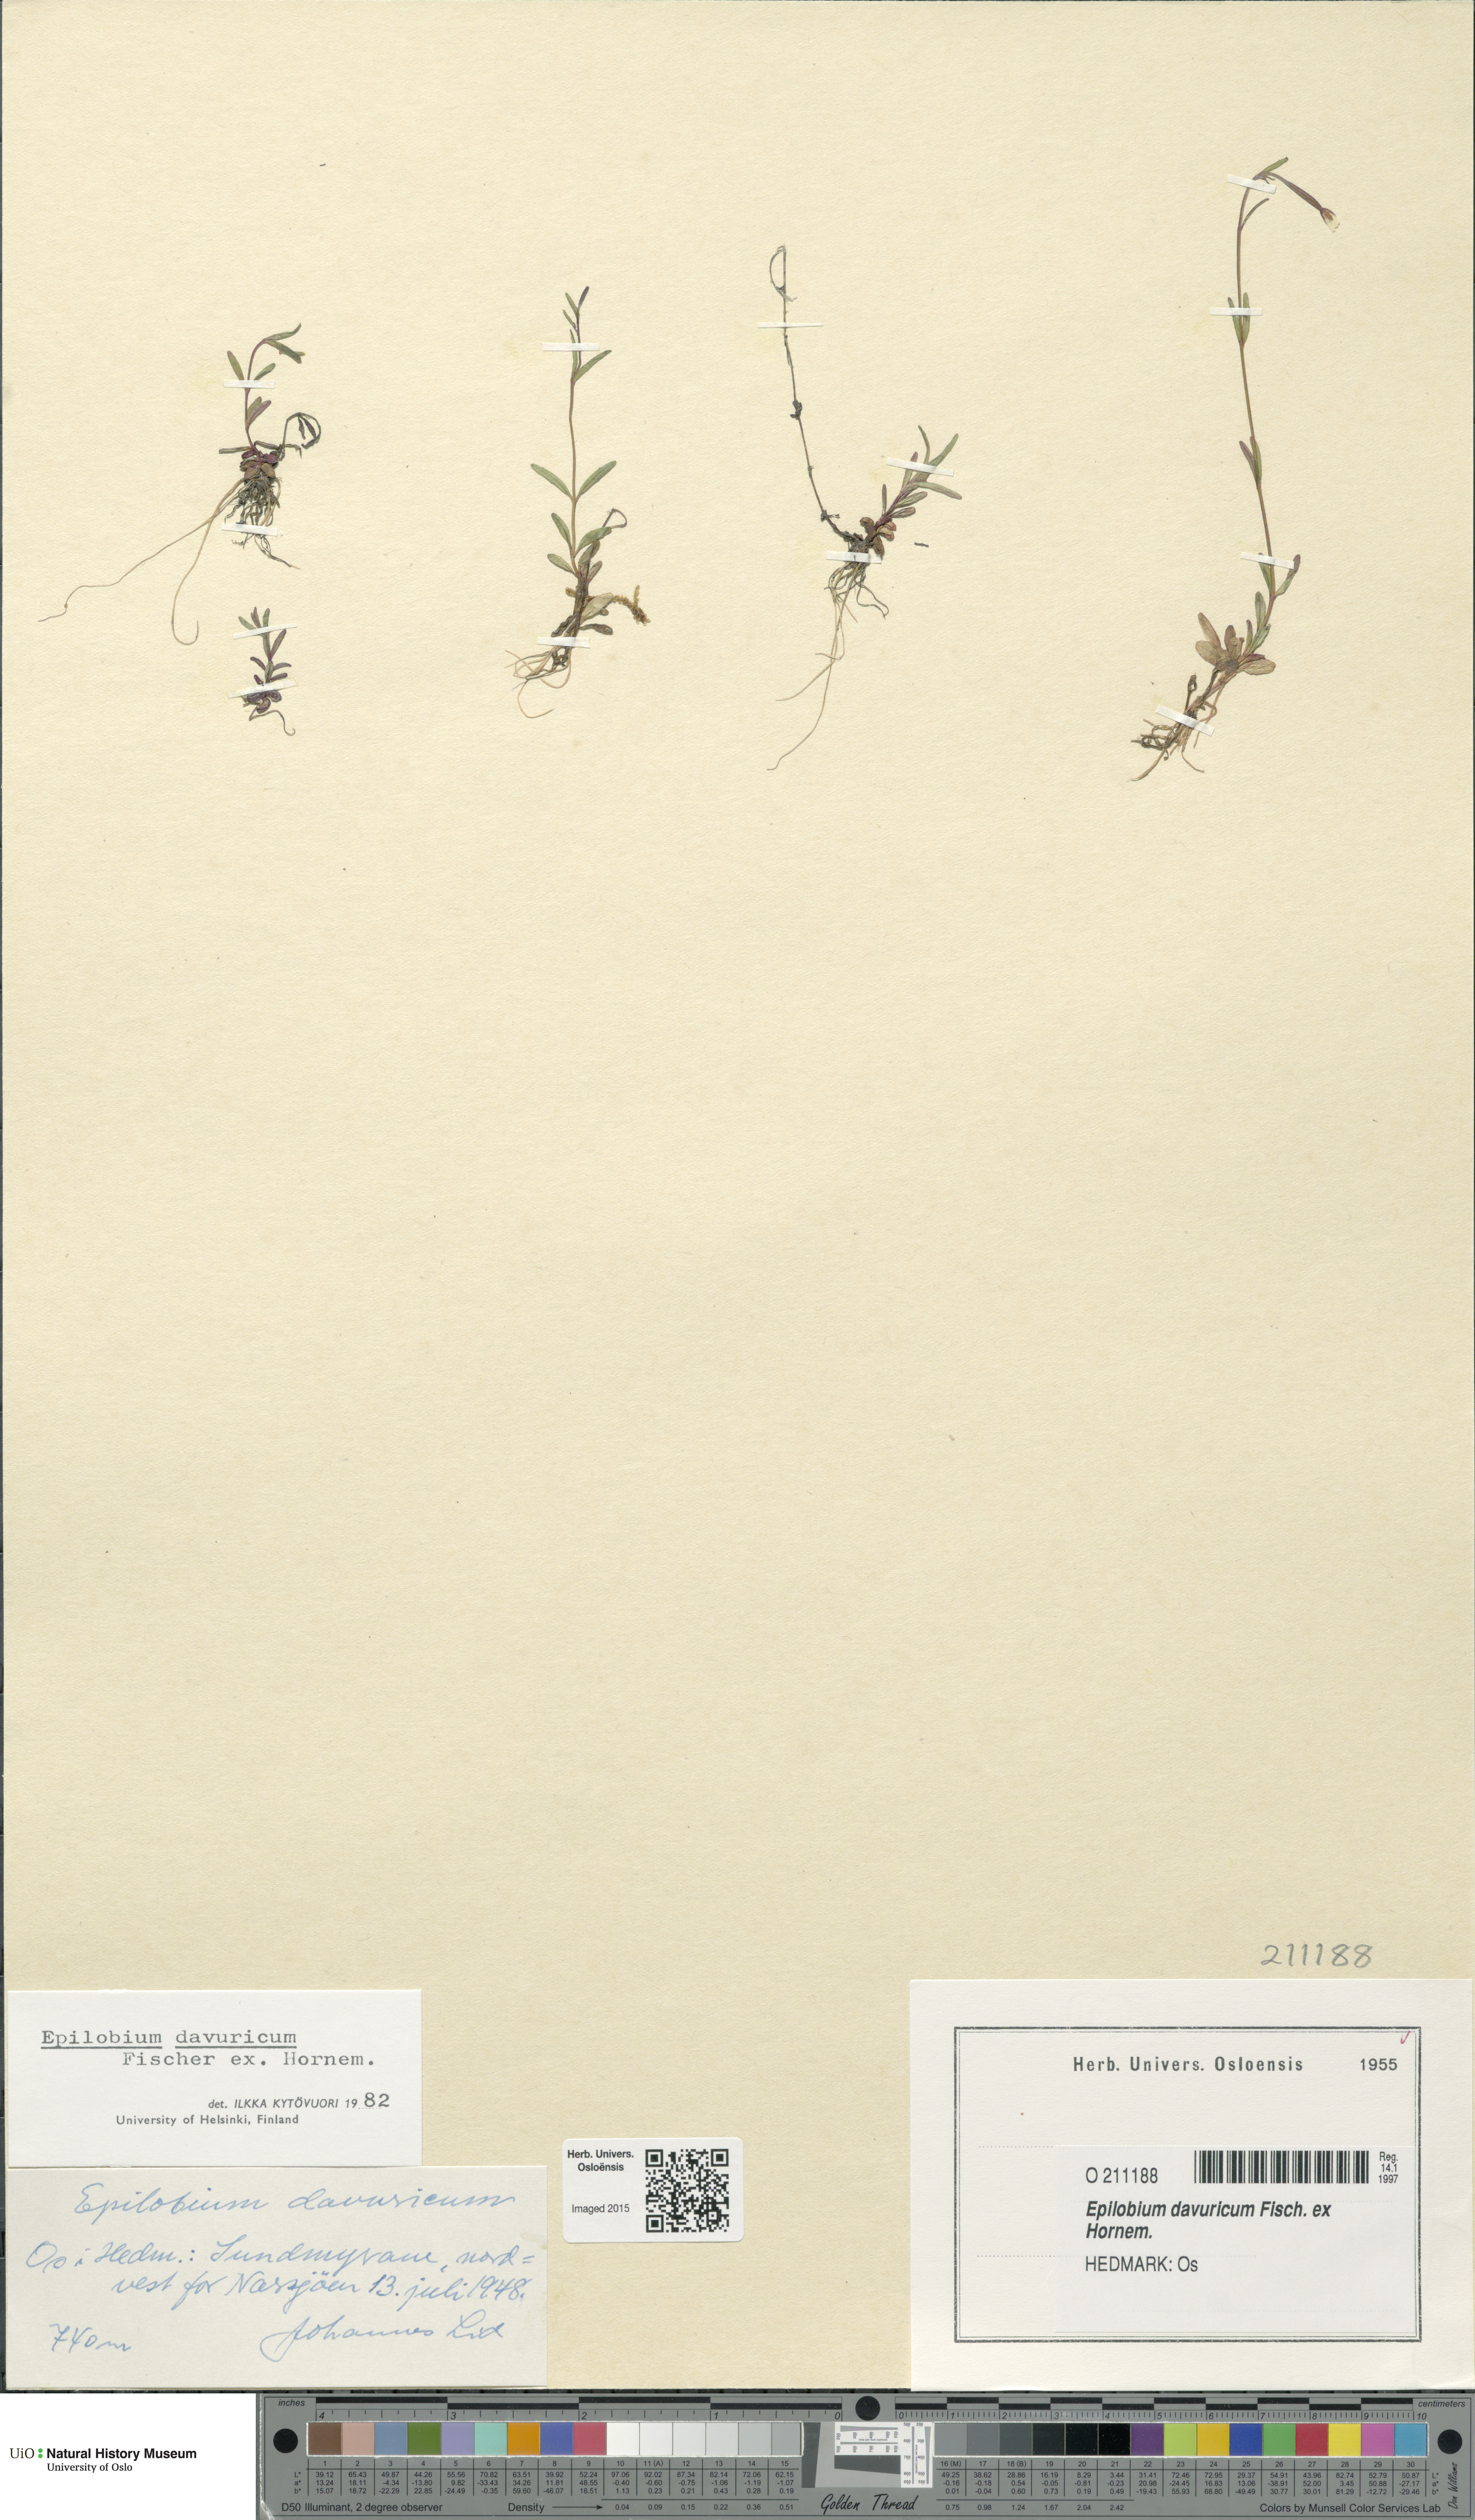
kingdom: Plantae
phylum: Tracheophyta
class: Magnoliopsida
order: Myrtales
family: Onagraceae
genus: Epilobium
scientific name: Epilobium davuricum
